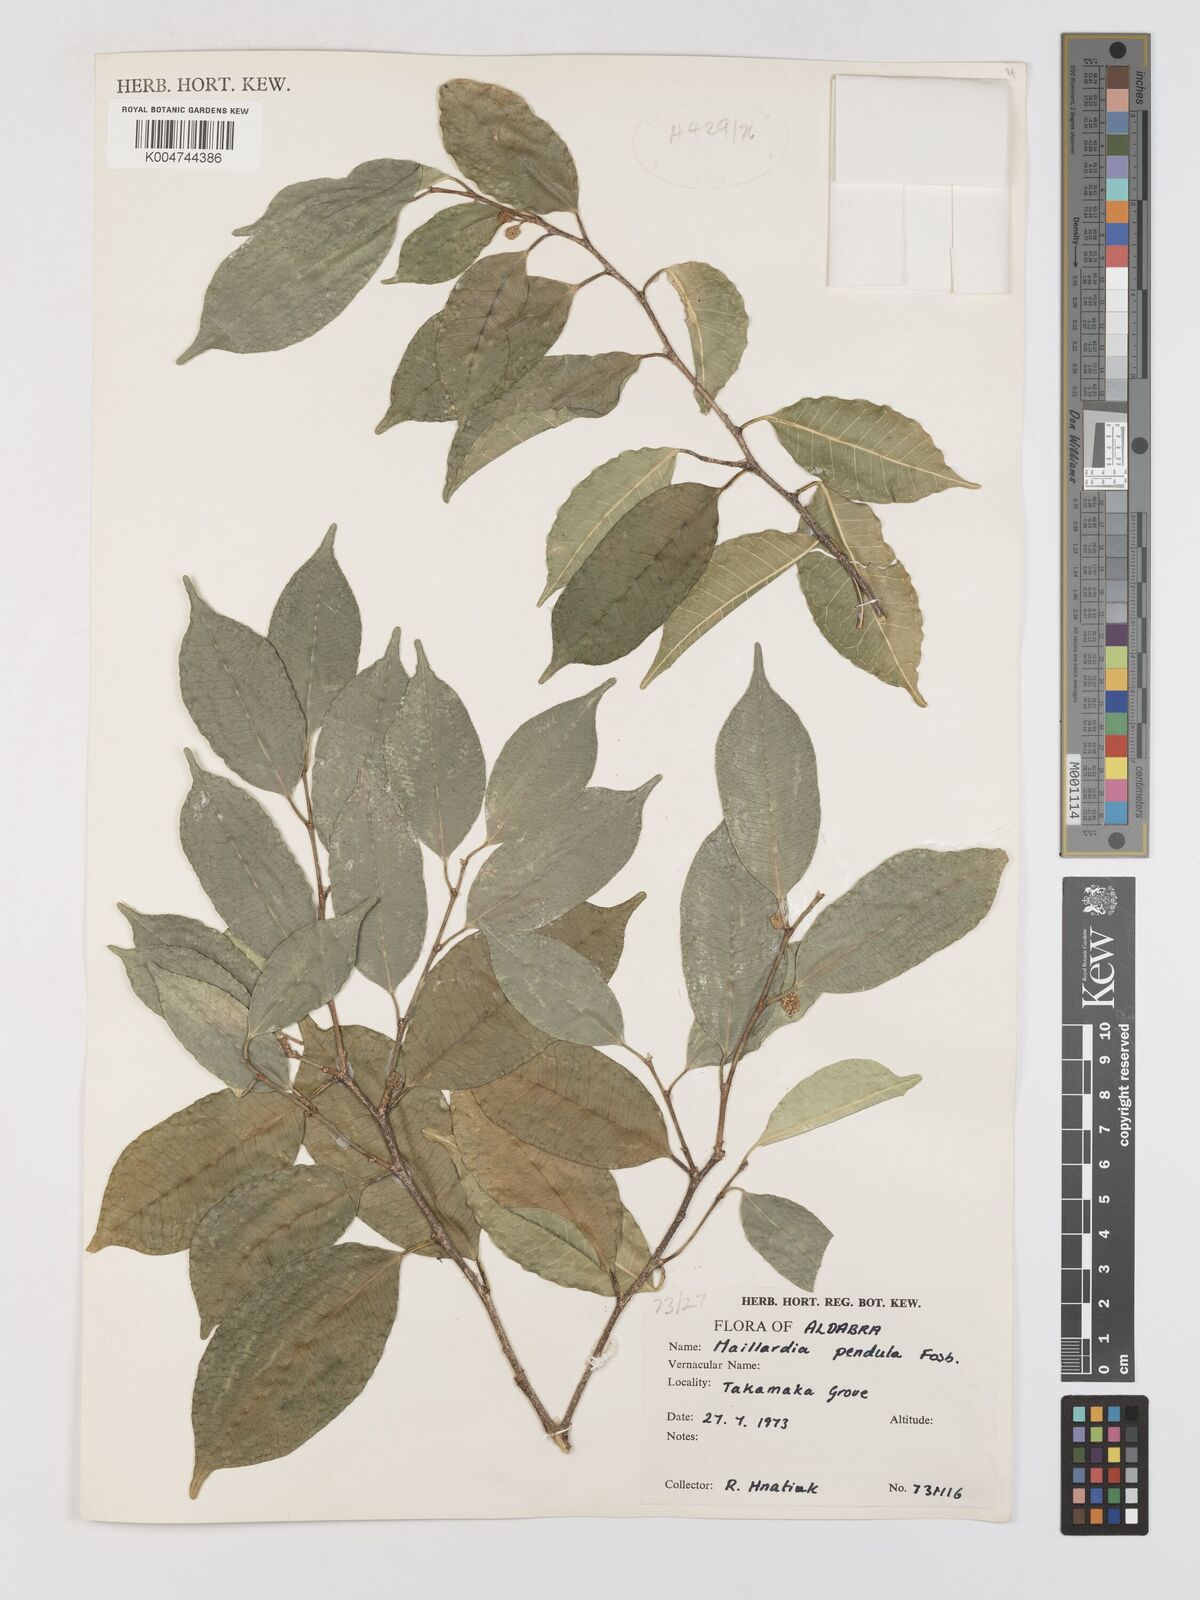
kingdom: Plantae
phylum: Tracheophyta
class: Magnoliopsida
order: Rosales
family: Moraceae
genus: Maillardia
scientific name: Maillardia montana
